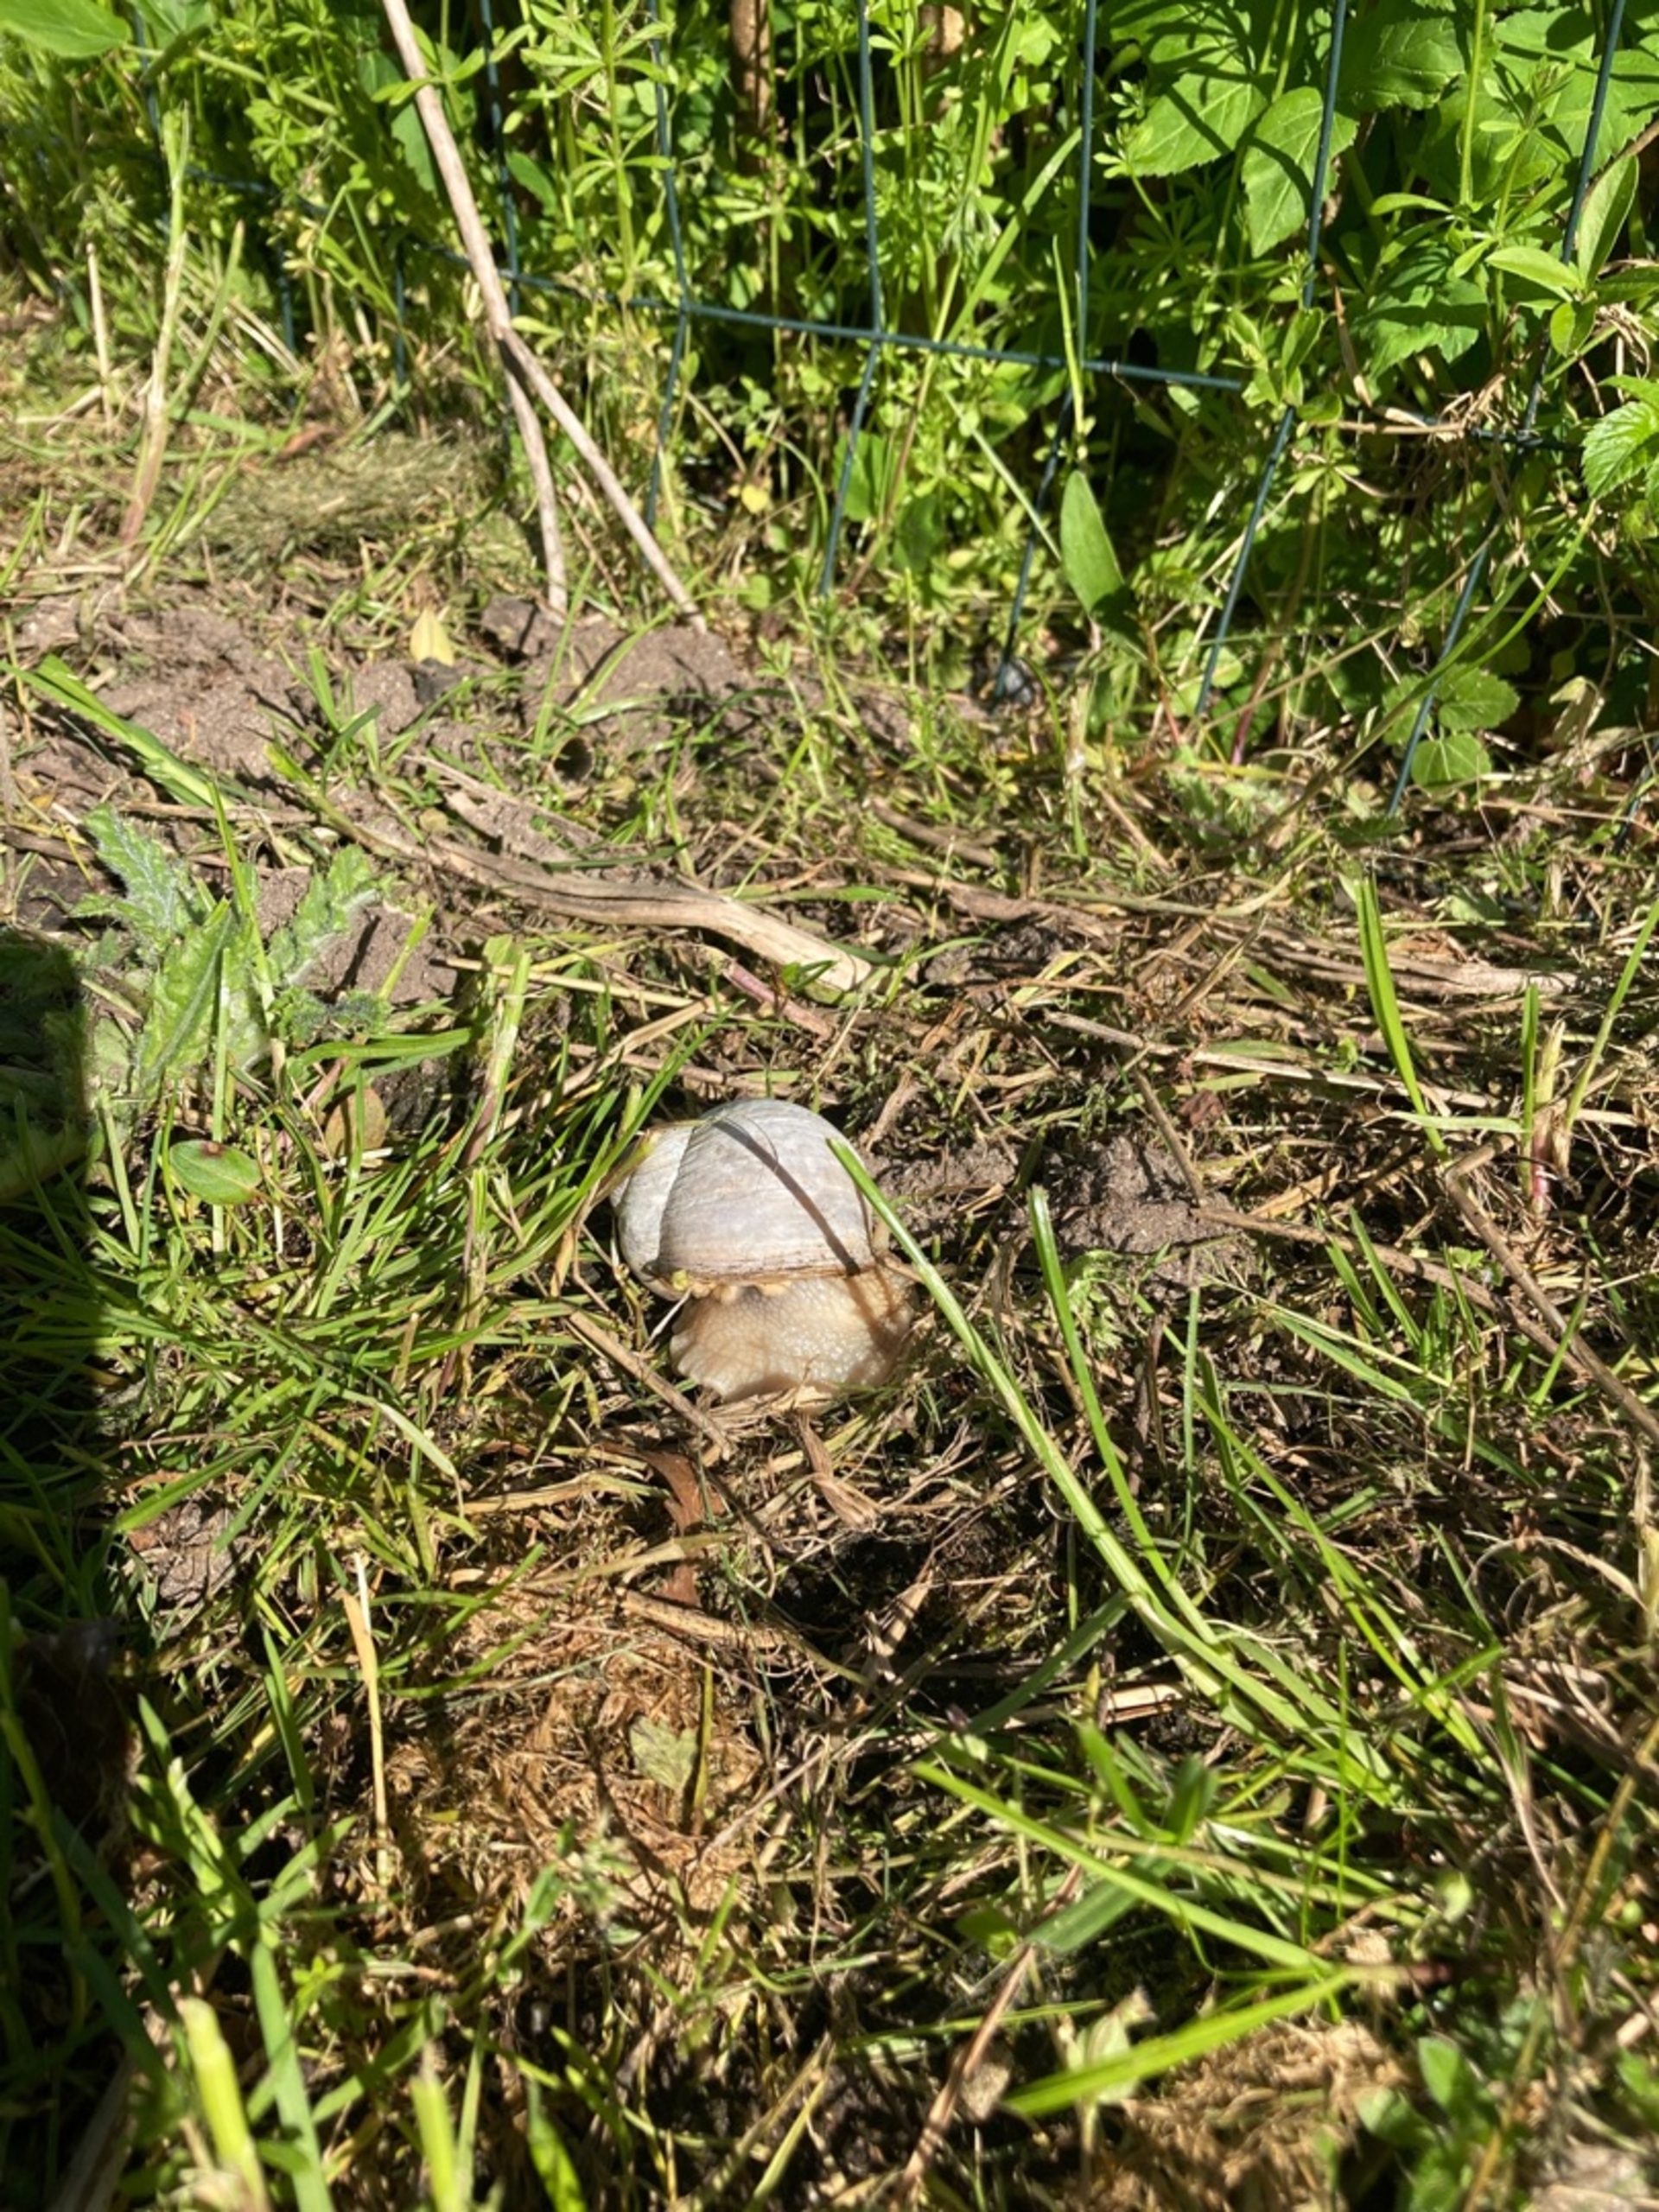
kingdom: Animalia
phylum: Mollusca
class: Gastropoda
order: Stylommatophora
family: Helicidae
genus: Helix
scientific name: Helix pomatia
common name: Vinbjergsnegl
